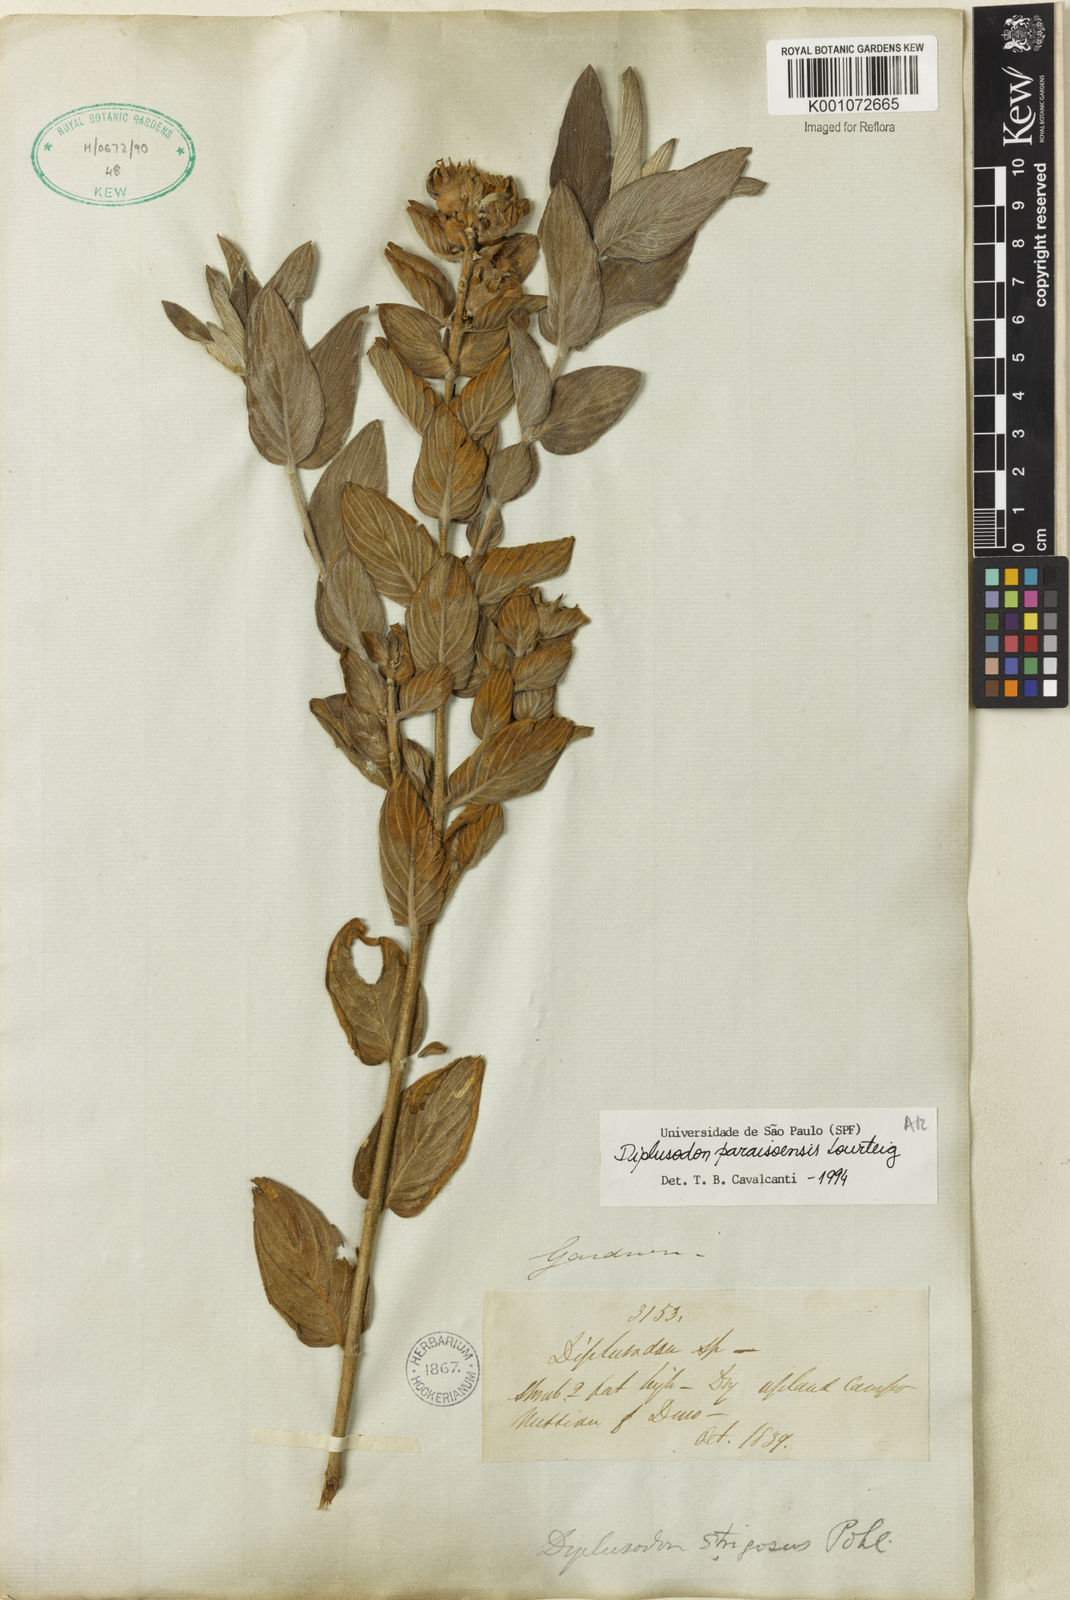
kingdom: Plantae
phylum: Tracheophyta
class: Magnoliopsida
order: Myrtales
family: Lythraceae
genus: Diplusodon
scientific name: Diplusodon paraisoensis
